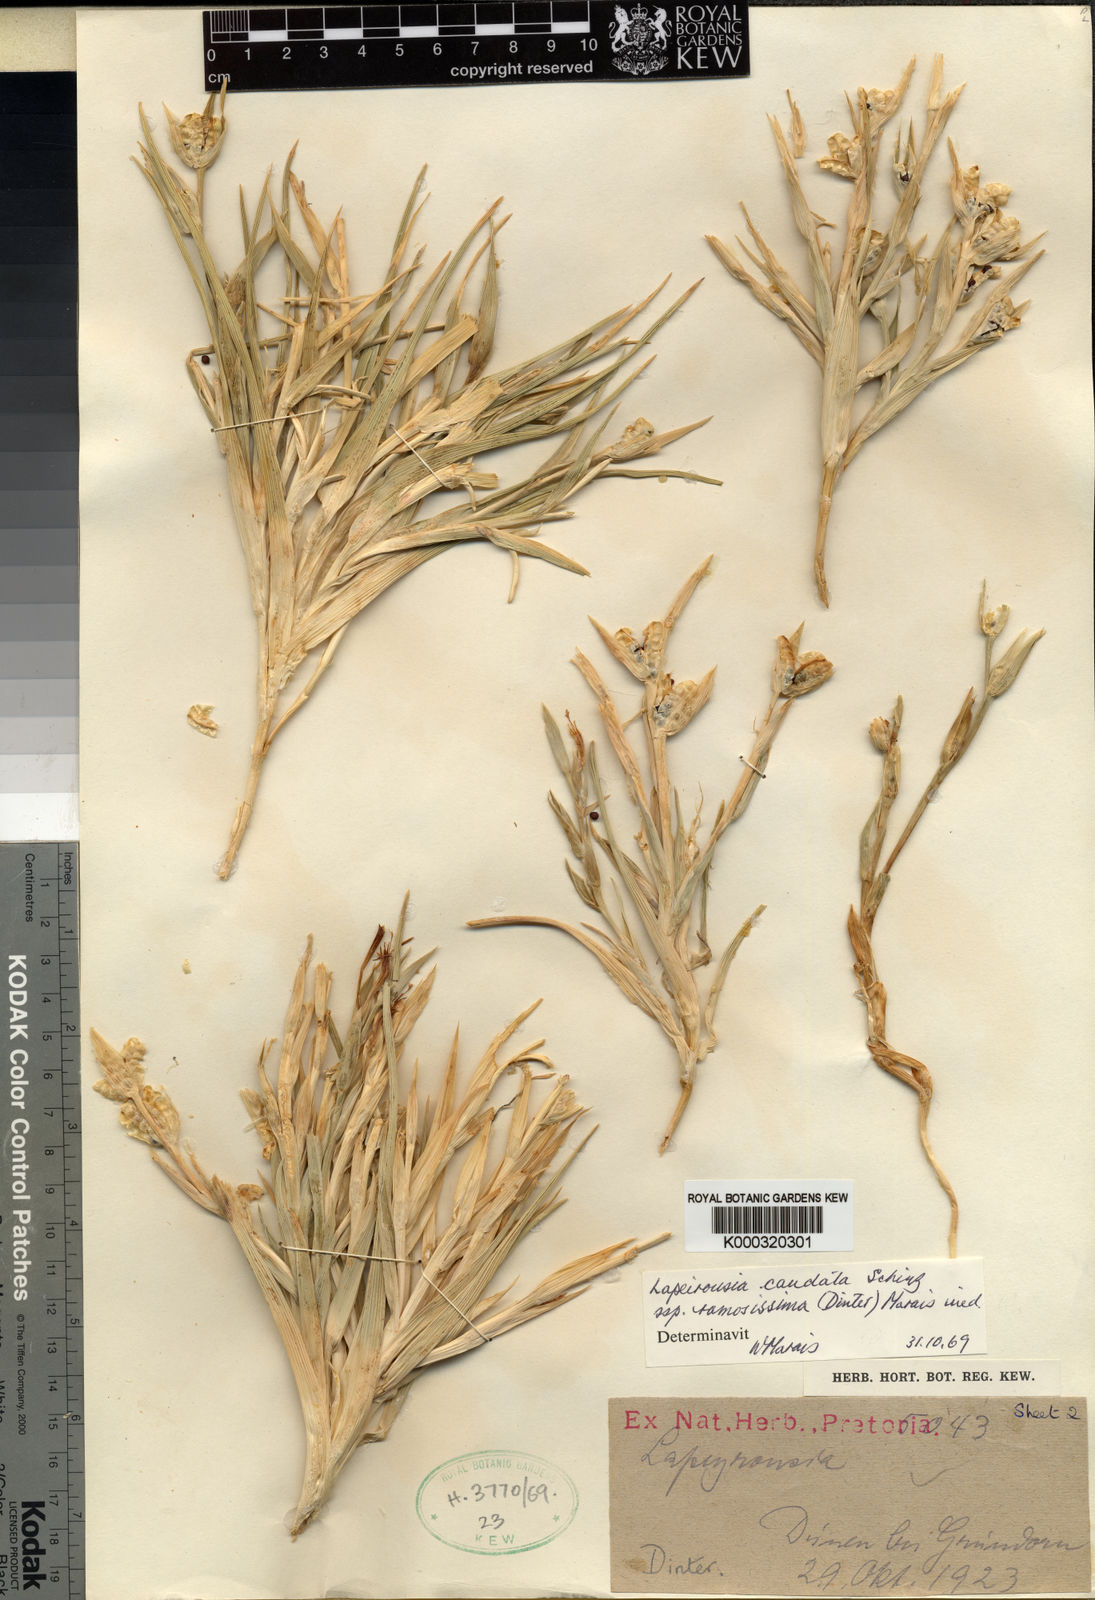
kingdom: Plantae
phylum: Tracheophyta
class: Liliopsida
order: Asparagales
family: Iridaceae
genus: Lapeirousia
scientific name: Lapeirousia littoralis
